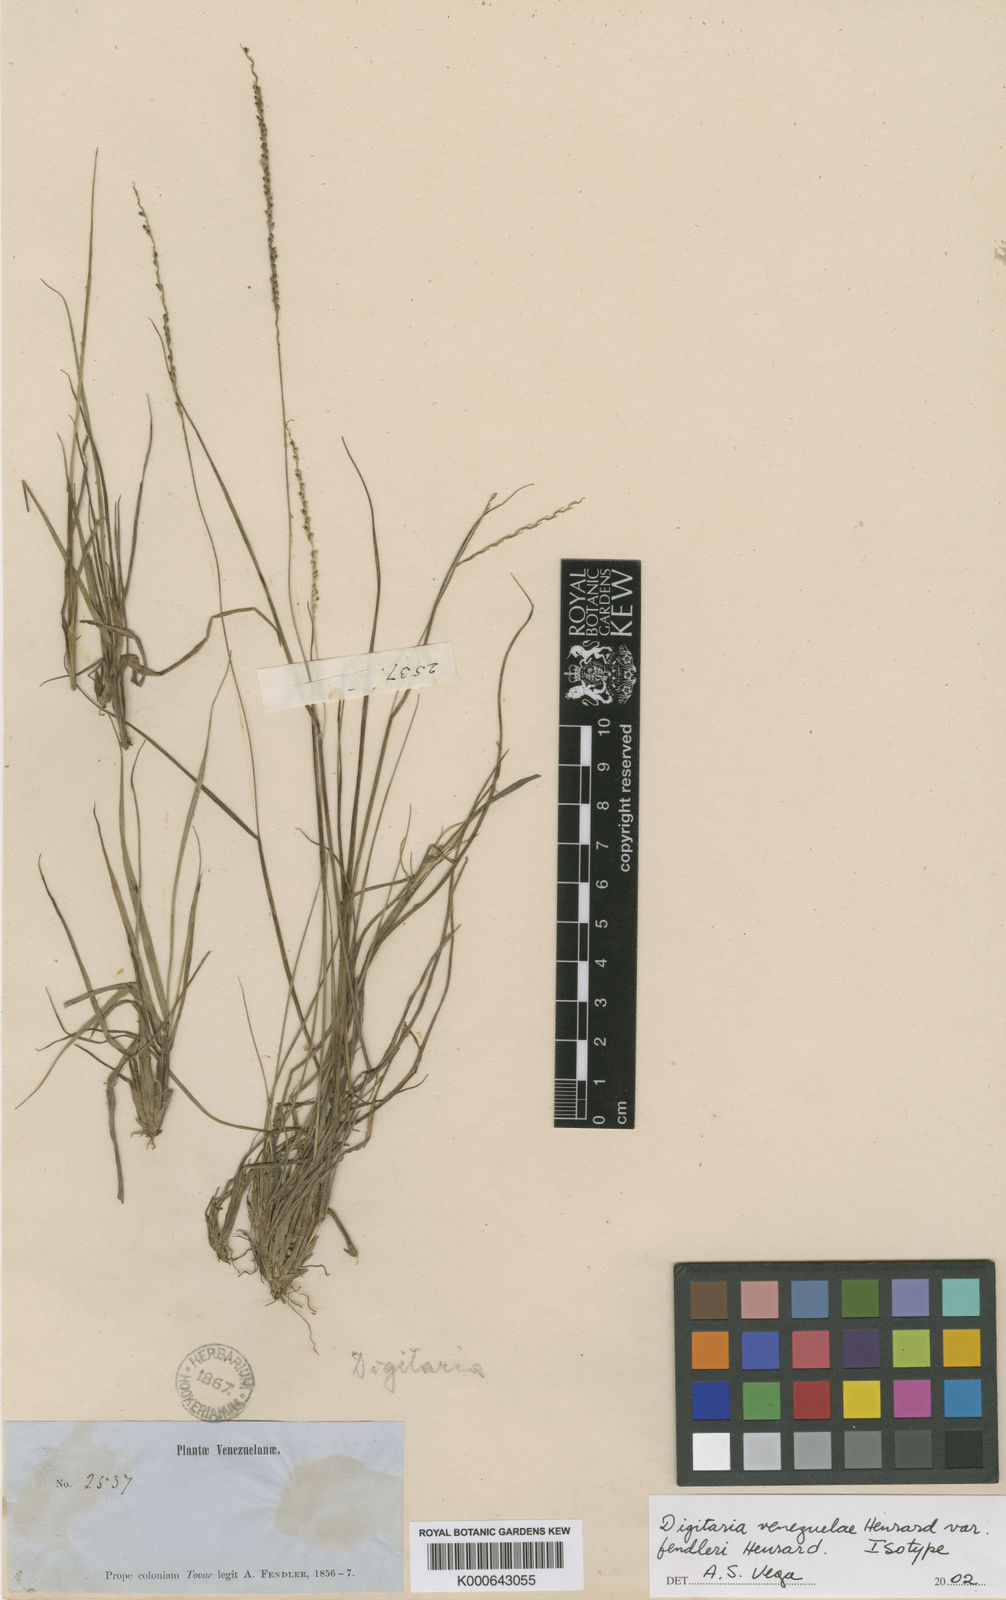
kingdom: Plantae
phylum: Tracheophyta
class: Liliopsida
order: Poales
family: Poaceae
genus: Digitaria
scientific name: Digitaria villiculmis
